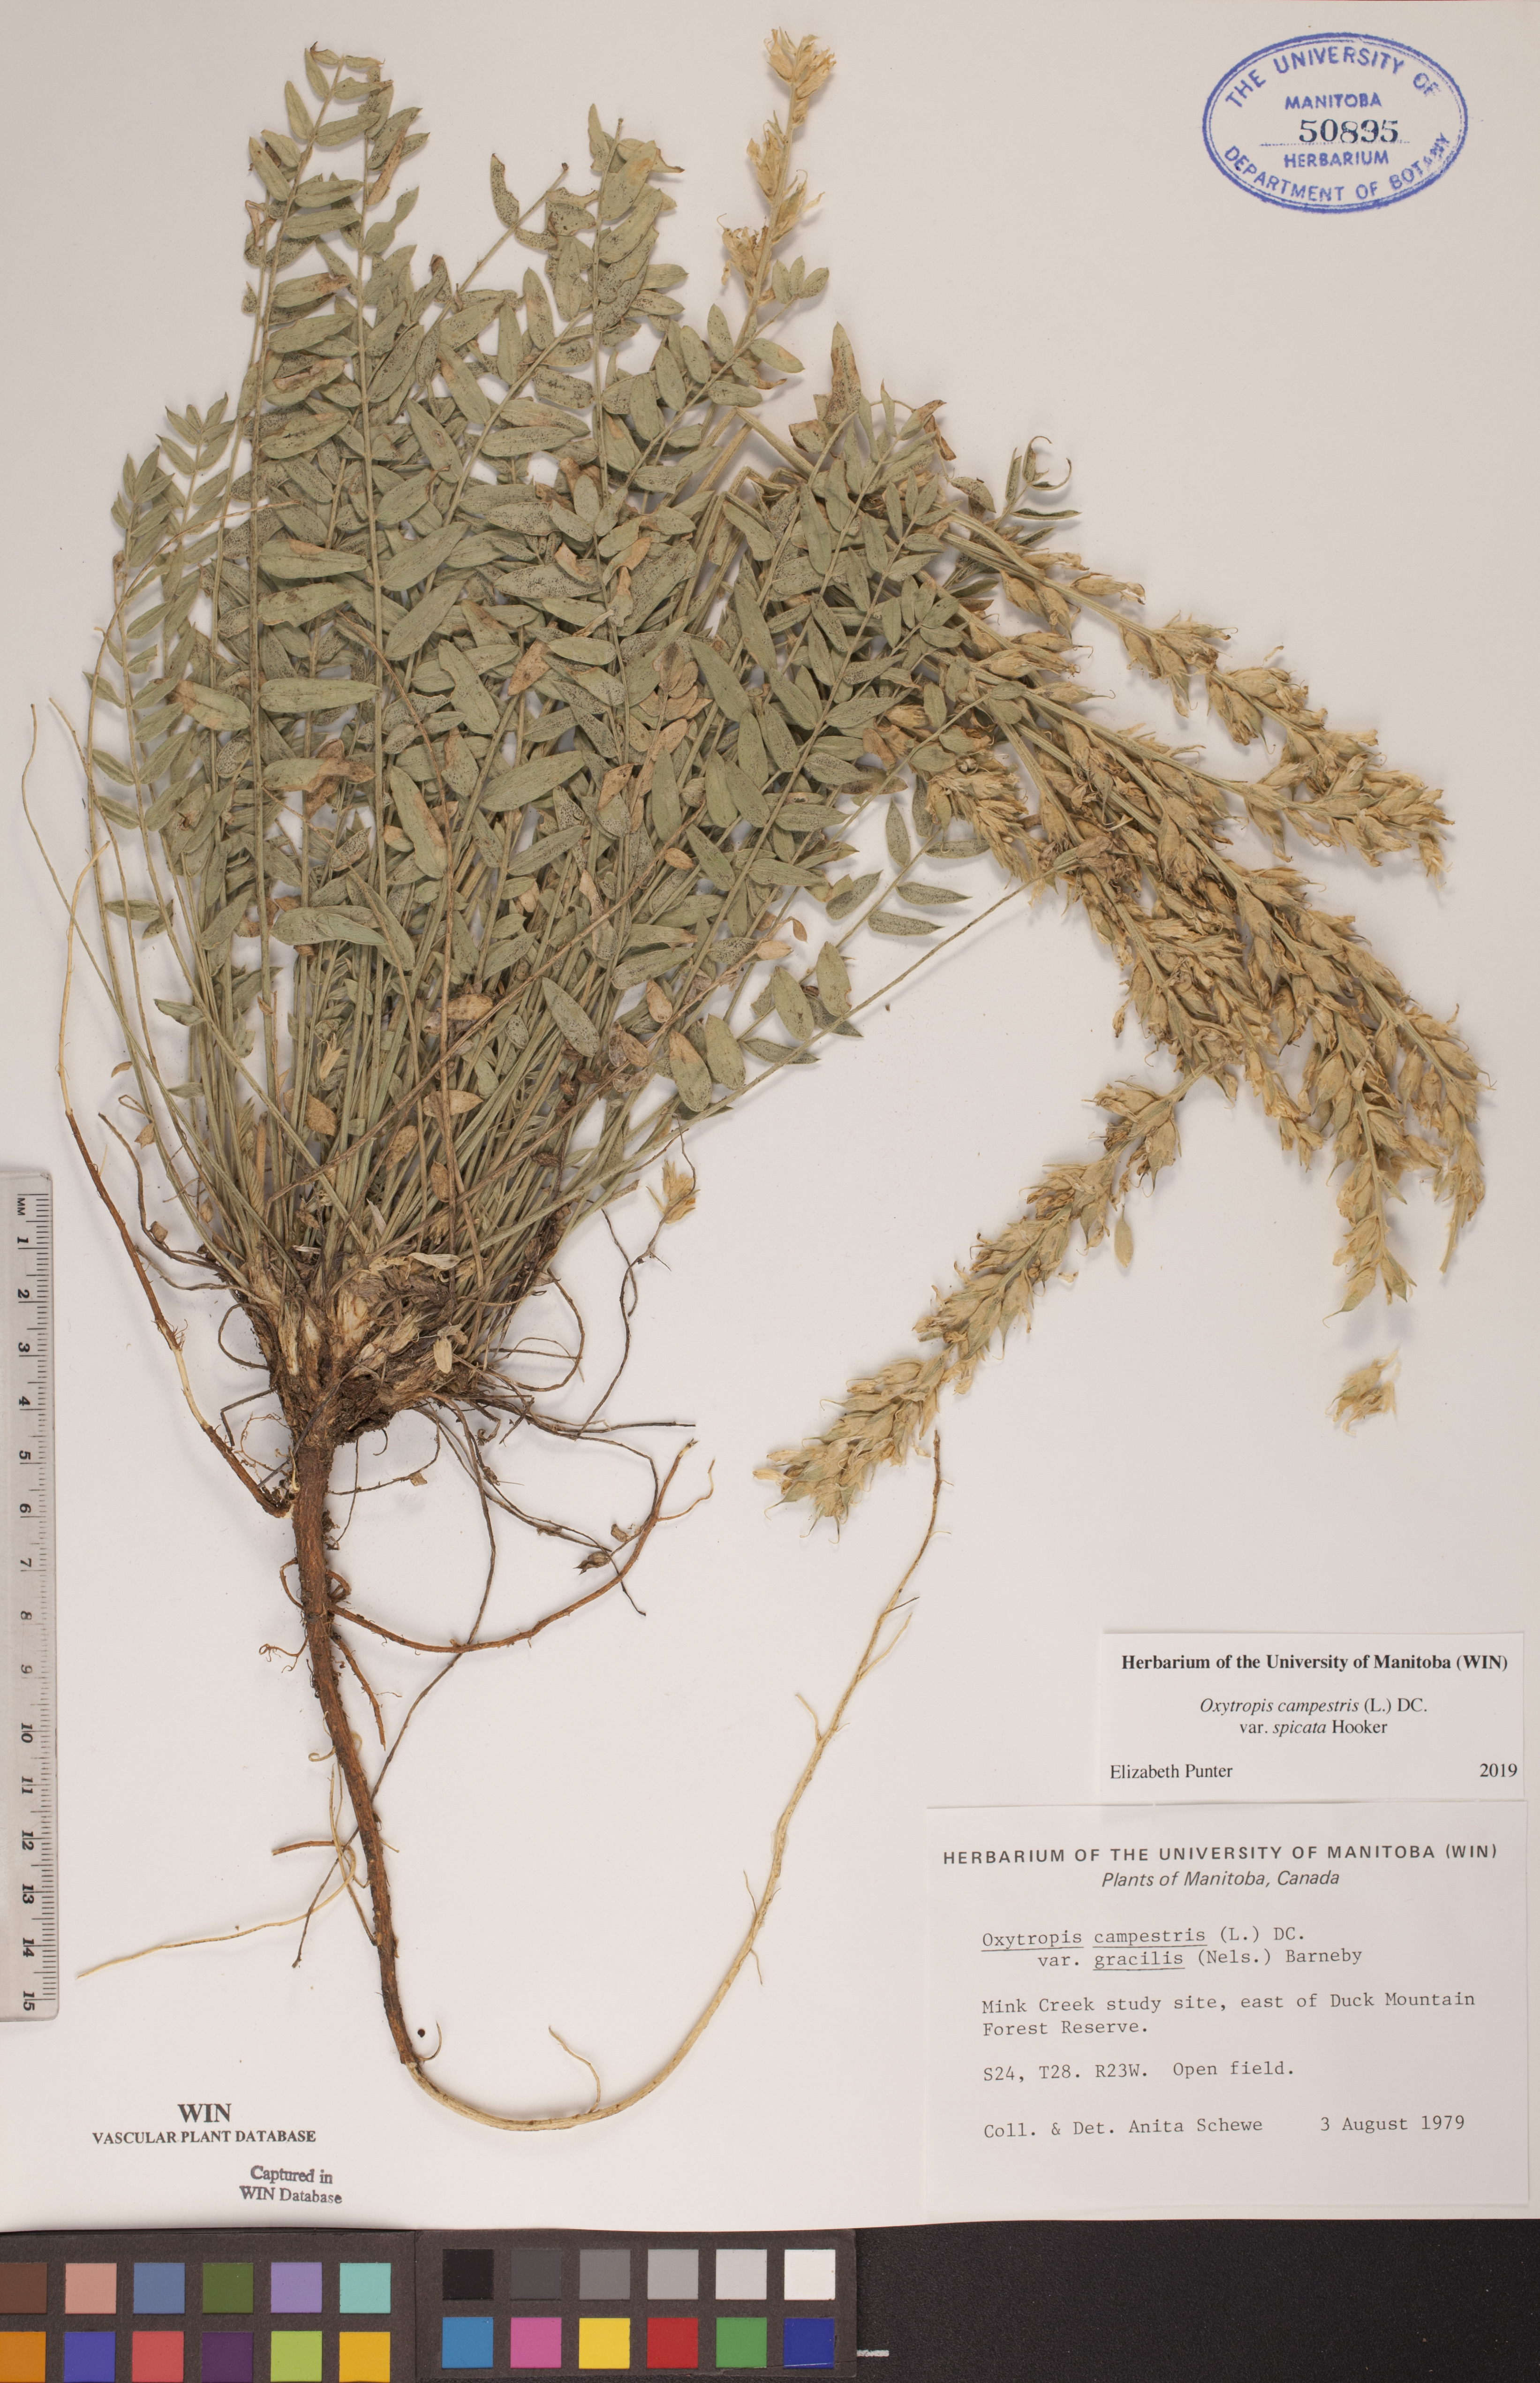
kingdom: Plantae
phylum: Tracheophyta
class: Magnoliopsida
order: Fabales
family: Fabaceae
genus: Oxytropis
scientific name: Oxytropis campestris
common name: Field locoweed
